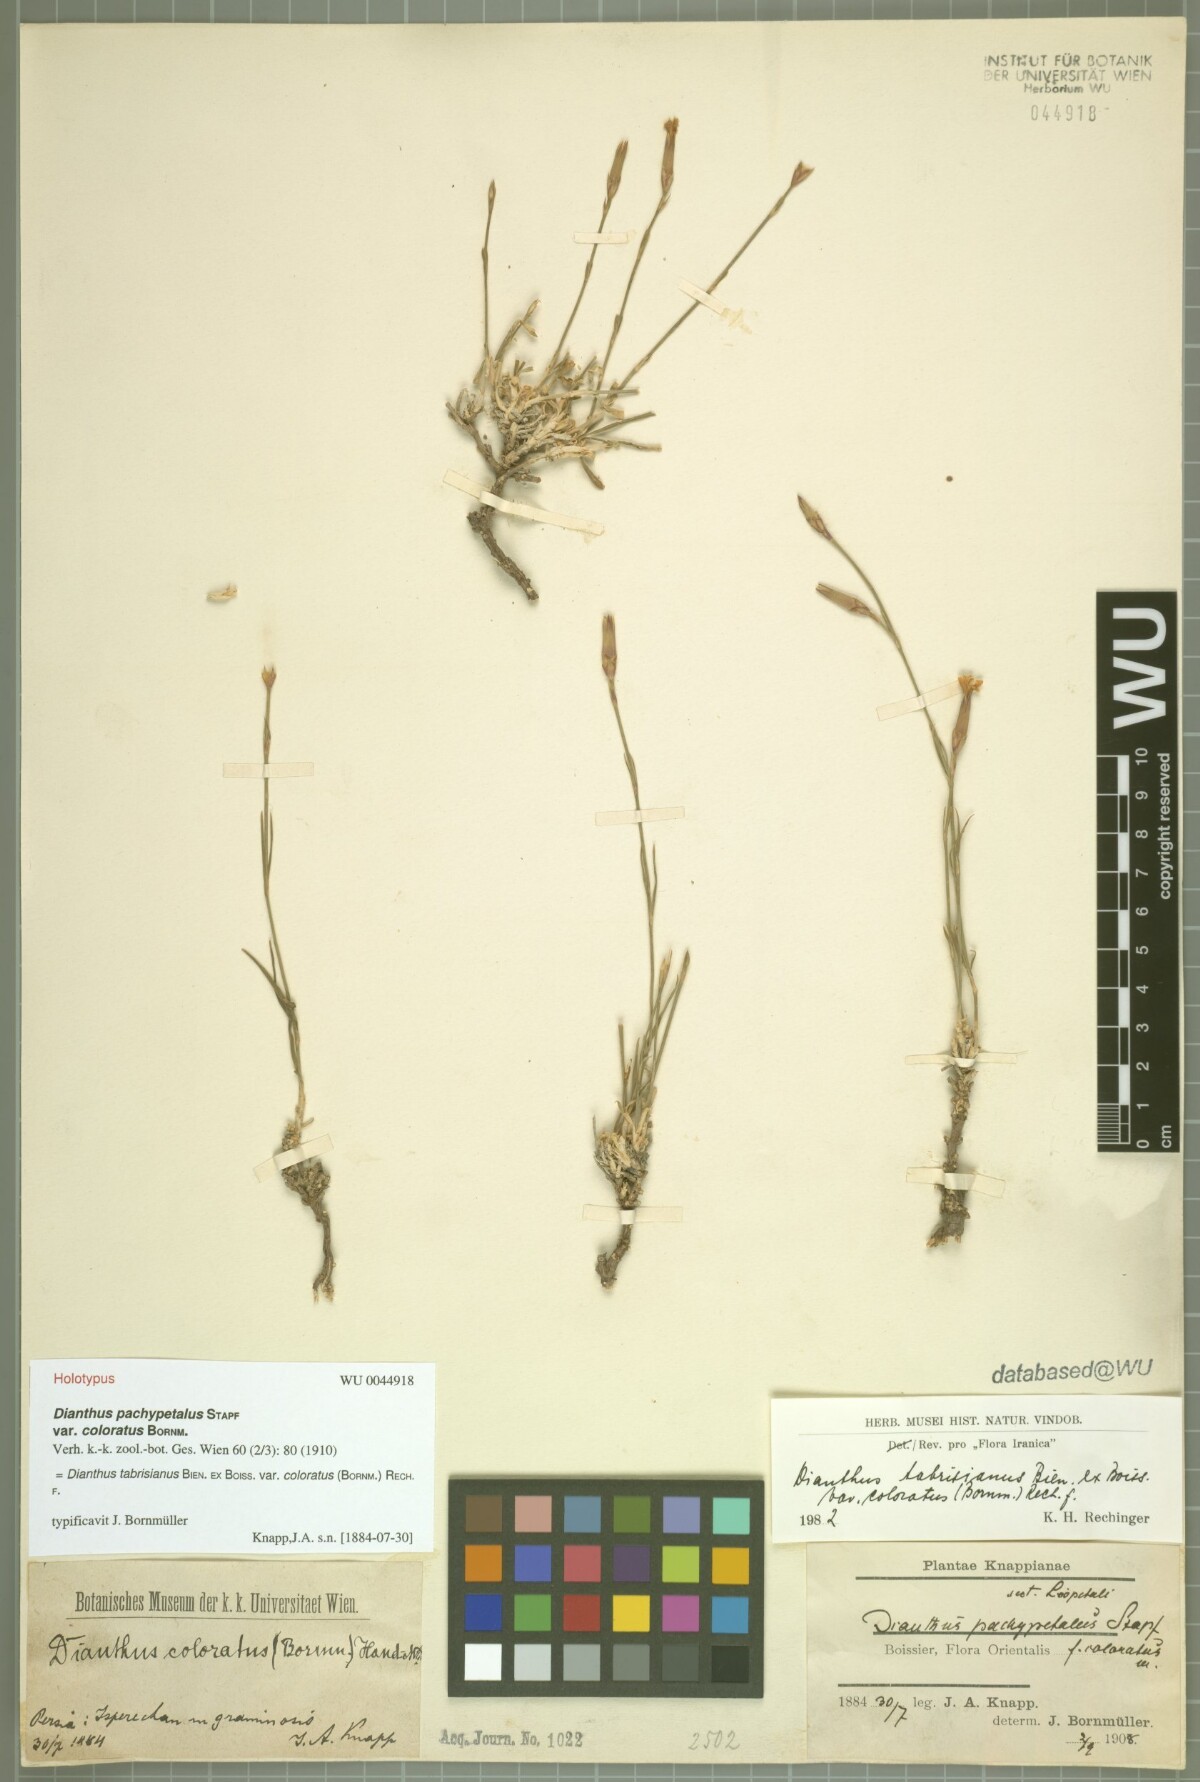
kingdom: Plantae
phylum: Tracheophyta
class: Magnoliopsida
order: Caryophyllales
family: Caryophyllaceae
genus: Dianthus
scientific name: Dianthus tabrisianus
